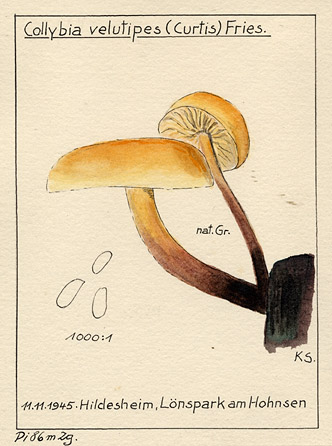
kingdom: Fungi
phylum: Basidiomycota
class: Agaricomycetes
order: Agaricales
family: Physalacriaceae
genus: Flammulina
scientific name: Flammulina velutipes
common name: Velvet shank
